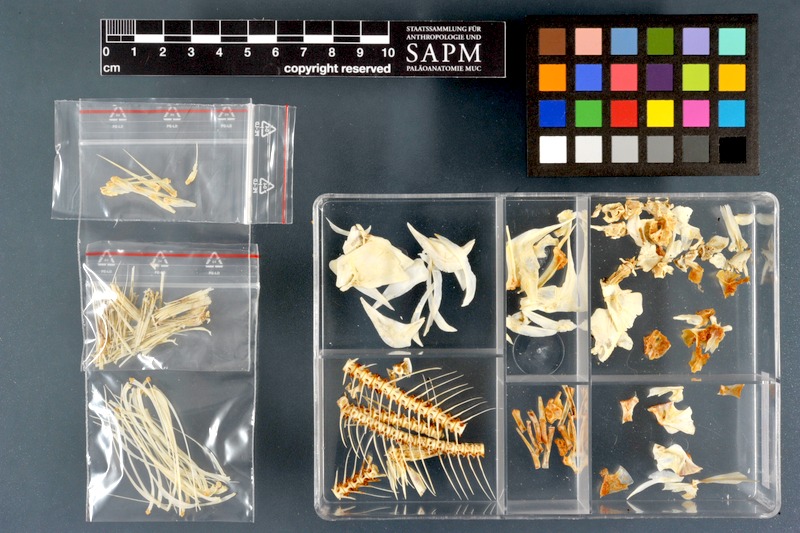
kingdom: Animalia
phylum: Chordata
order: Characiformes
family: Distichodontidae
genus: Distichodus
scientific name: Distichodus rostratus
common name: Grass-eater
